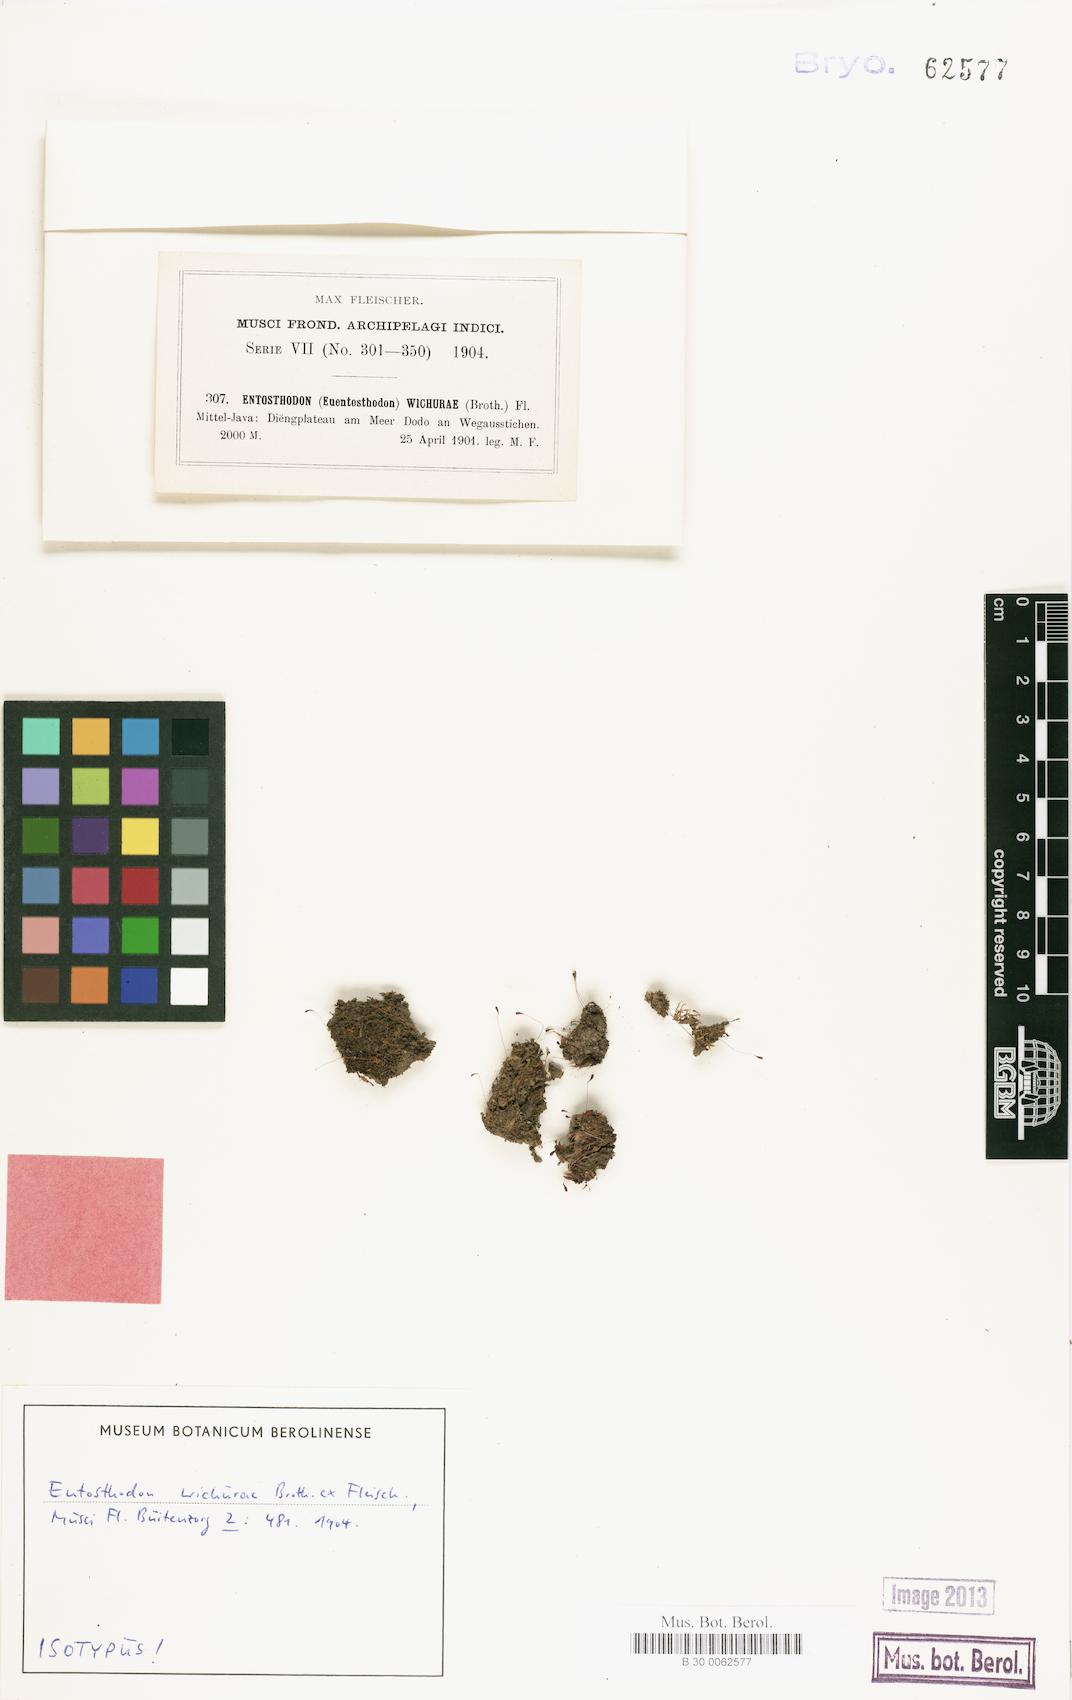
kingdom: Plantae
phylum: Bryophyta
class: Bryopsida
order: Funariales
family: Funariaceae
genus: Entosthodon
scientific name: Entosthodon wichurae
